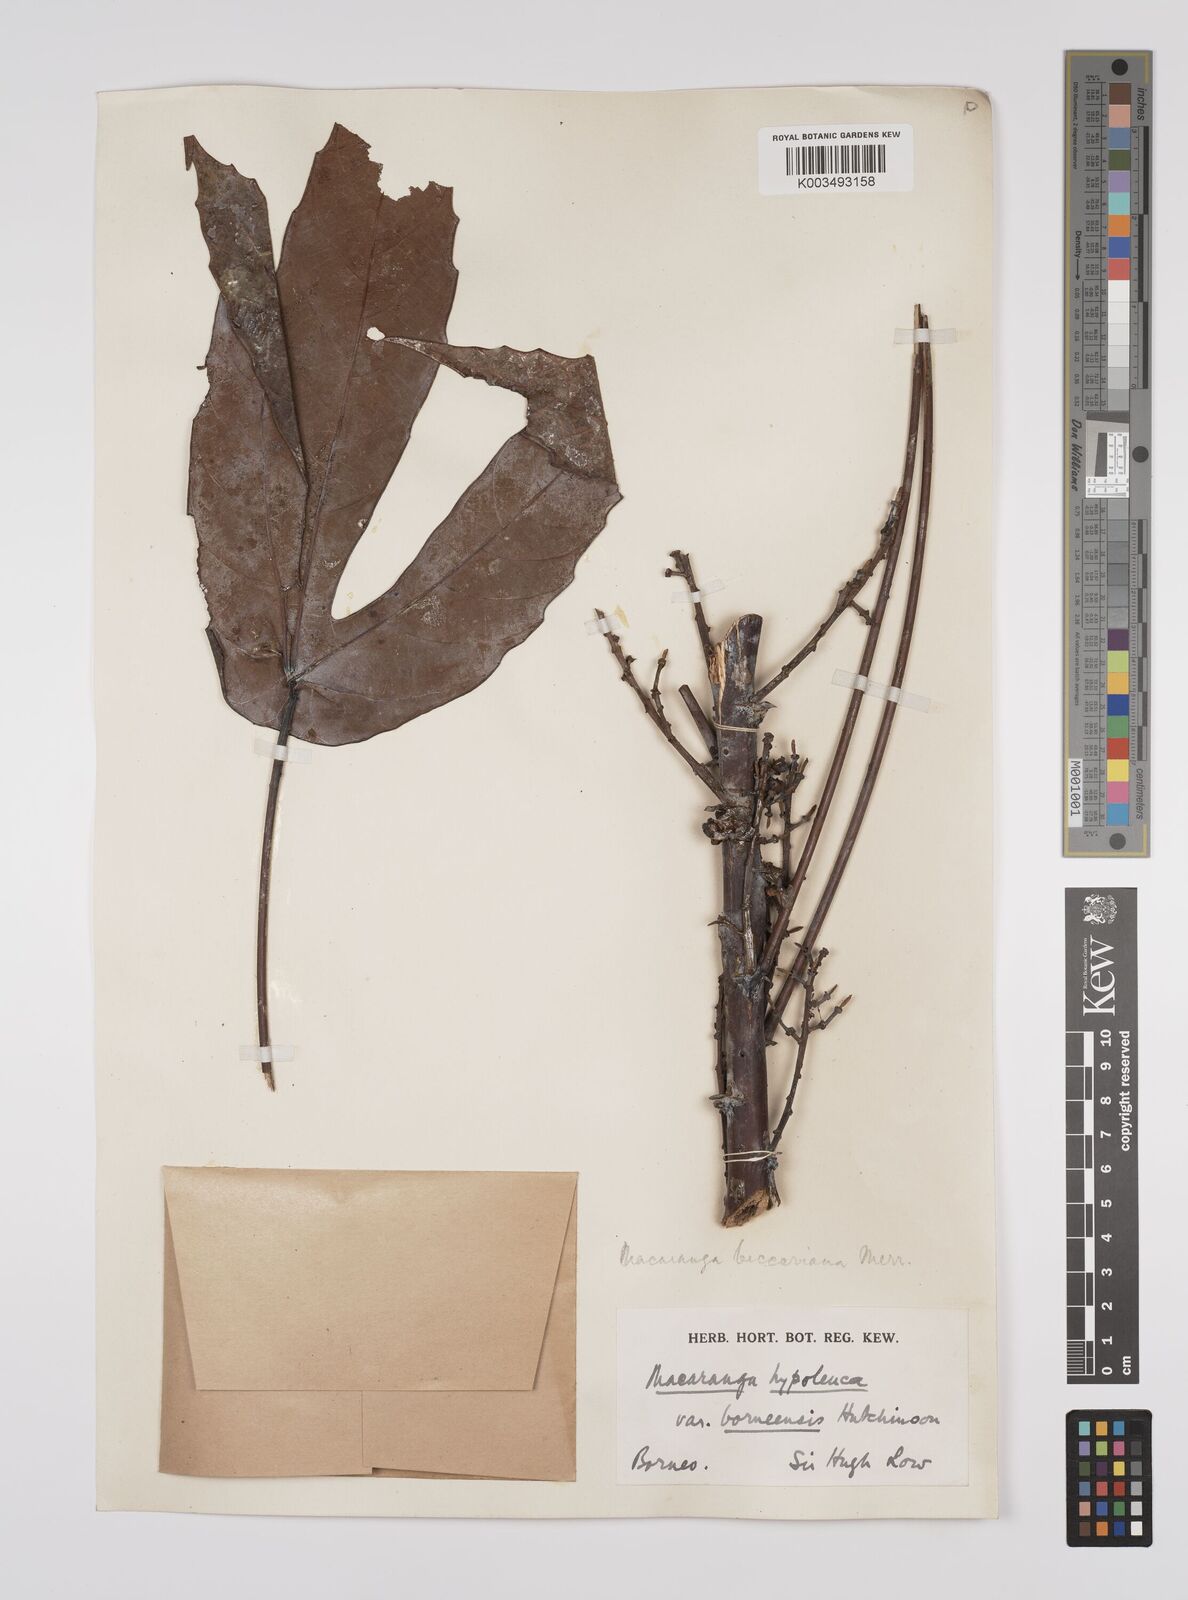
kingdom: Plantae
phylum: Tracheophyta
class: Magnoliopsida
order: Malpighiales
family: Euphorbiaceae
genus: Macaranga
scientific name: Macaranga beccariana
